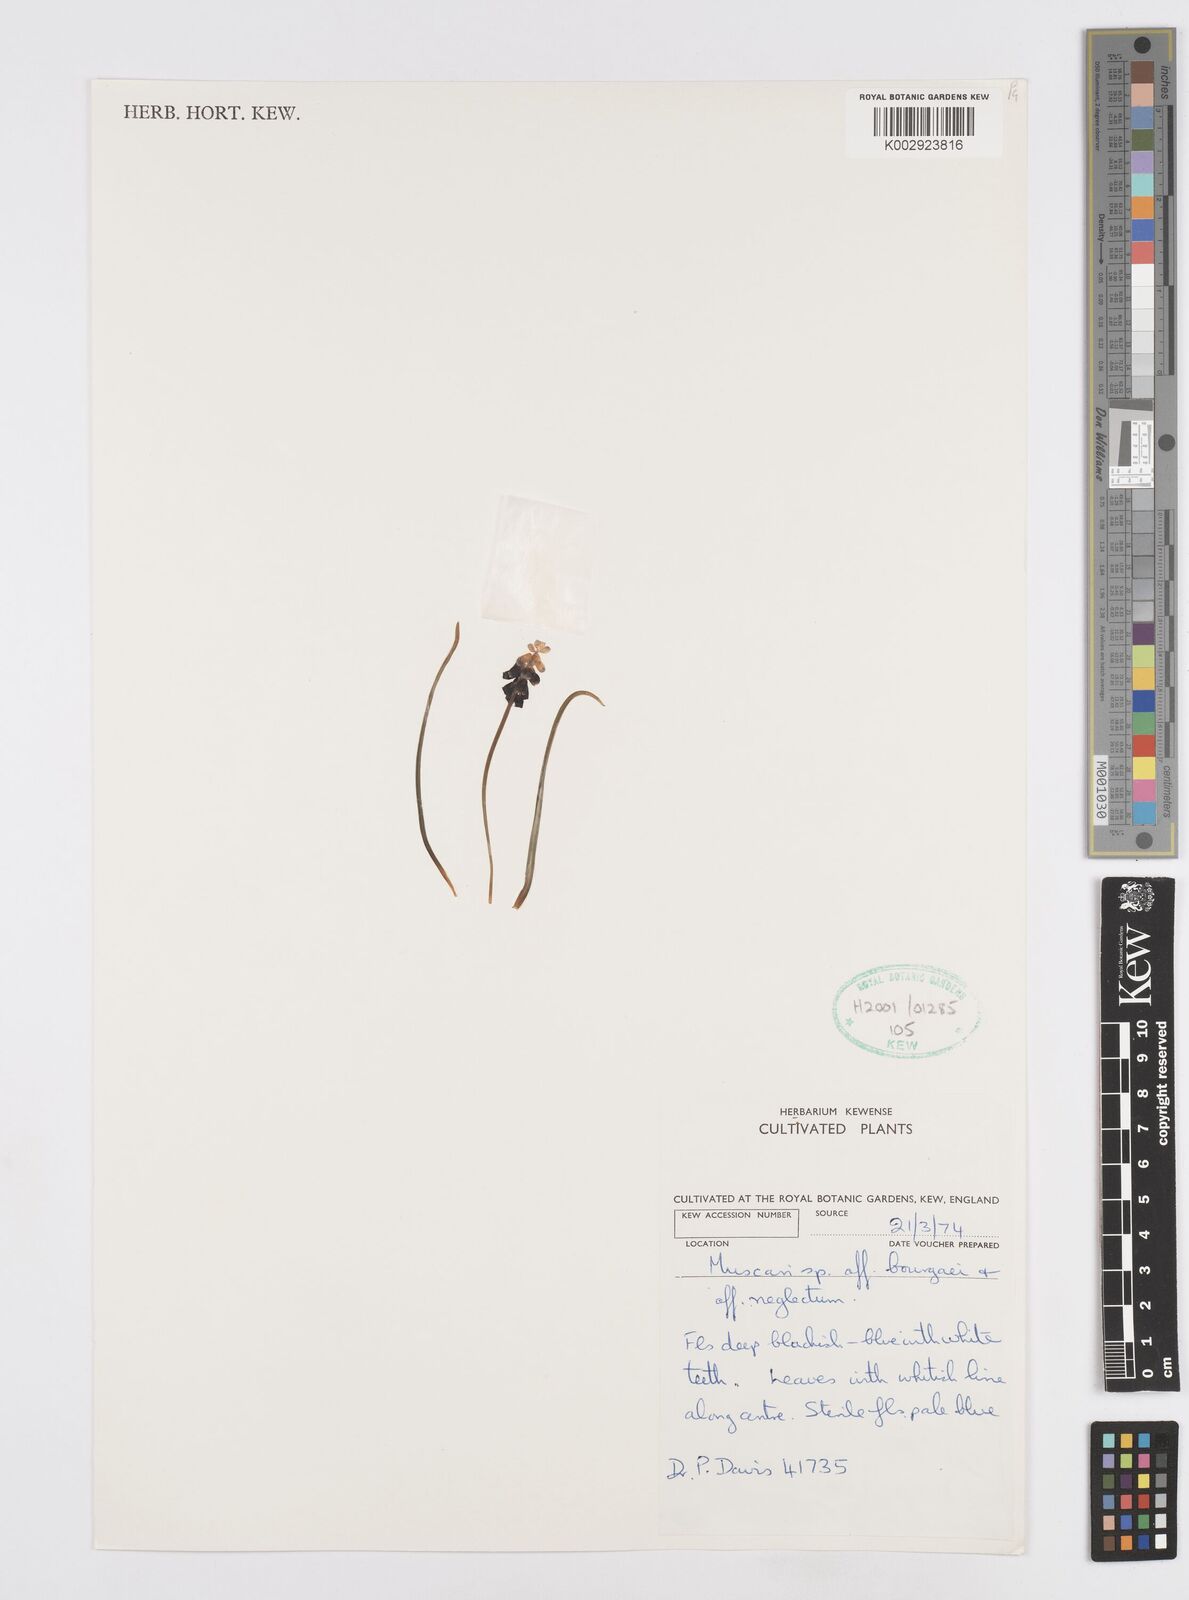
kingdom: Plantae
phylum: Tracheophyta
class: Liliopsida
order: Asparagales
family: Asparagaceae
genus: Muscari
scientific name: Muscari
